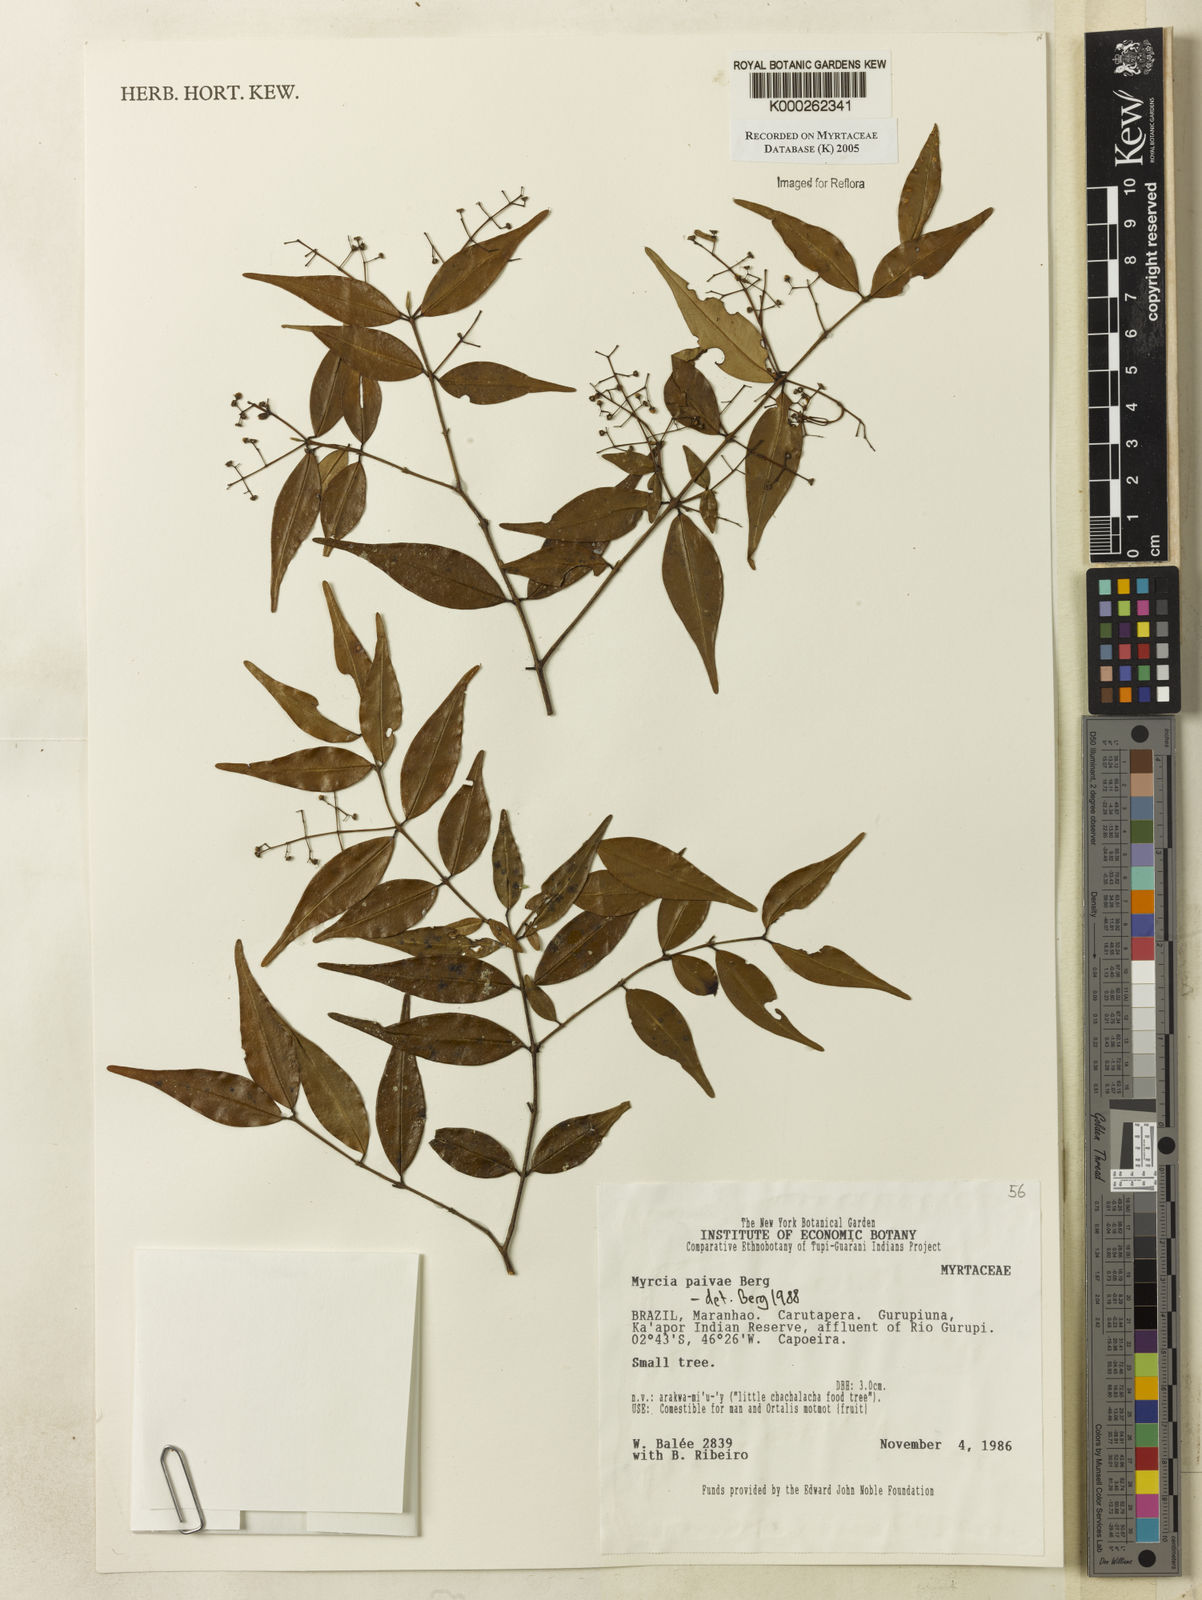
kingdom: Plantae
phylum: Tracheophyta
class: Magnoliopsida
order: Myrtales
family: Myrtaceae
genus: Myrcia
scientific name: Myrcia paivae
